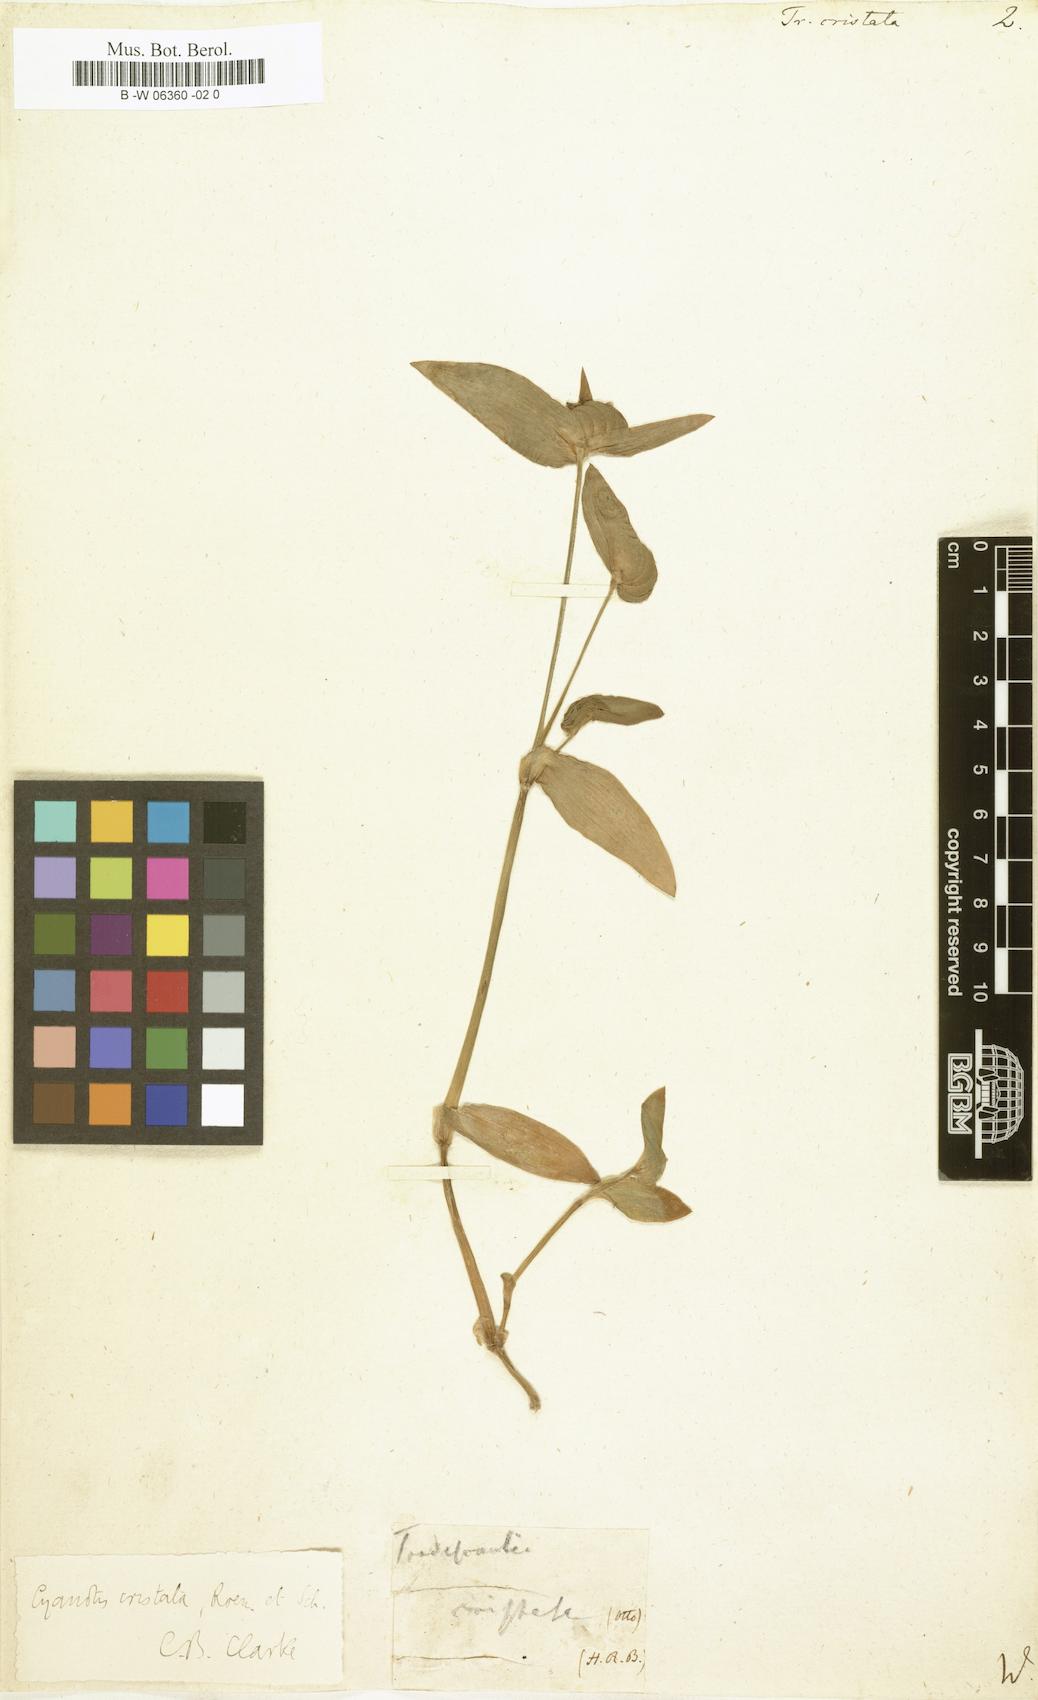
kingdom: Plantae
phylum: Tracheophyta
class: Liliopsida
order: Commelinales
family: Commelinaceae
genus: Tradescantia
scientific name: Tradescantia cristata
